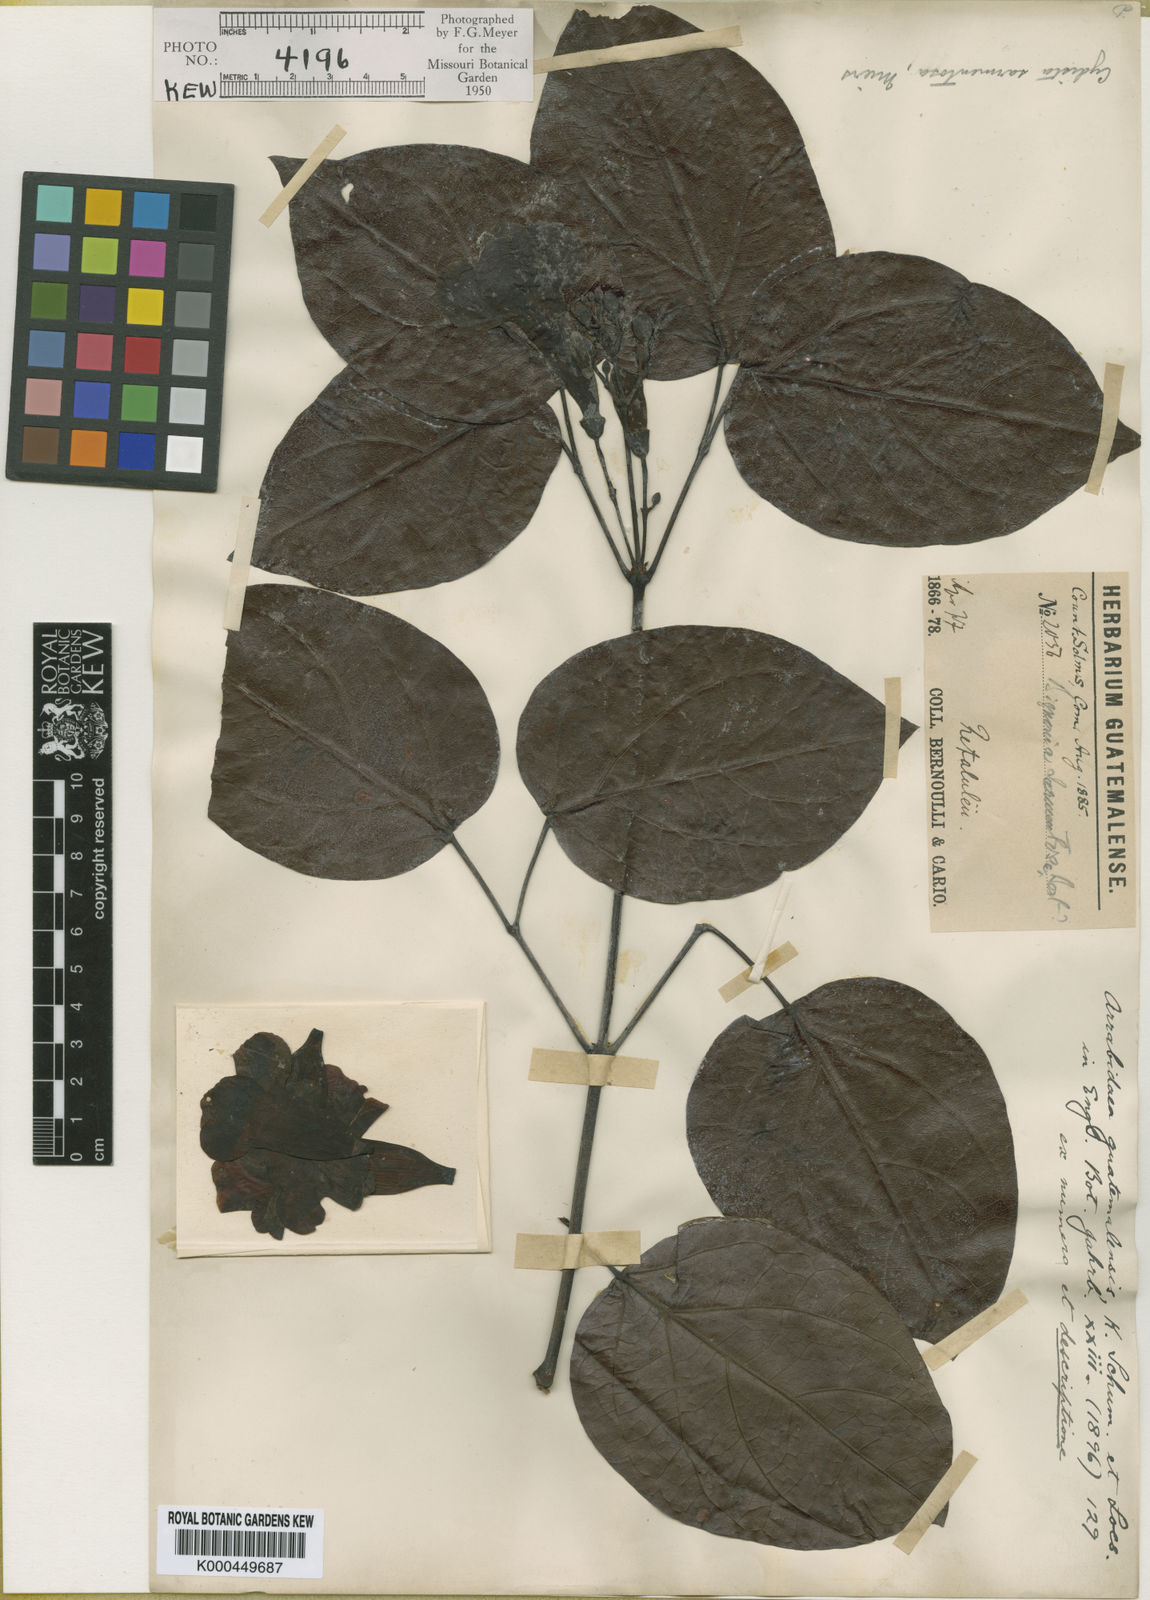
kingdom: Plantae
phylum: Tracheophyta
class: Magnoliopsida
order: Lamiales
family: Bignoniaceae
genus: Bignonia
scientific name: Bignonia aequinoctialis
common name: Garlicvine
